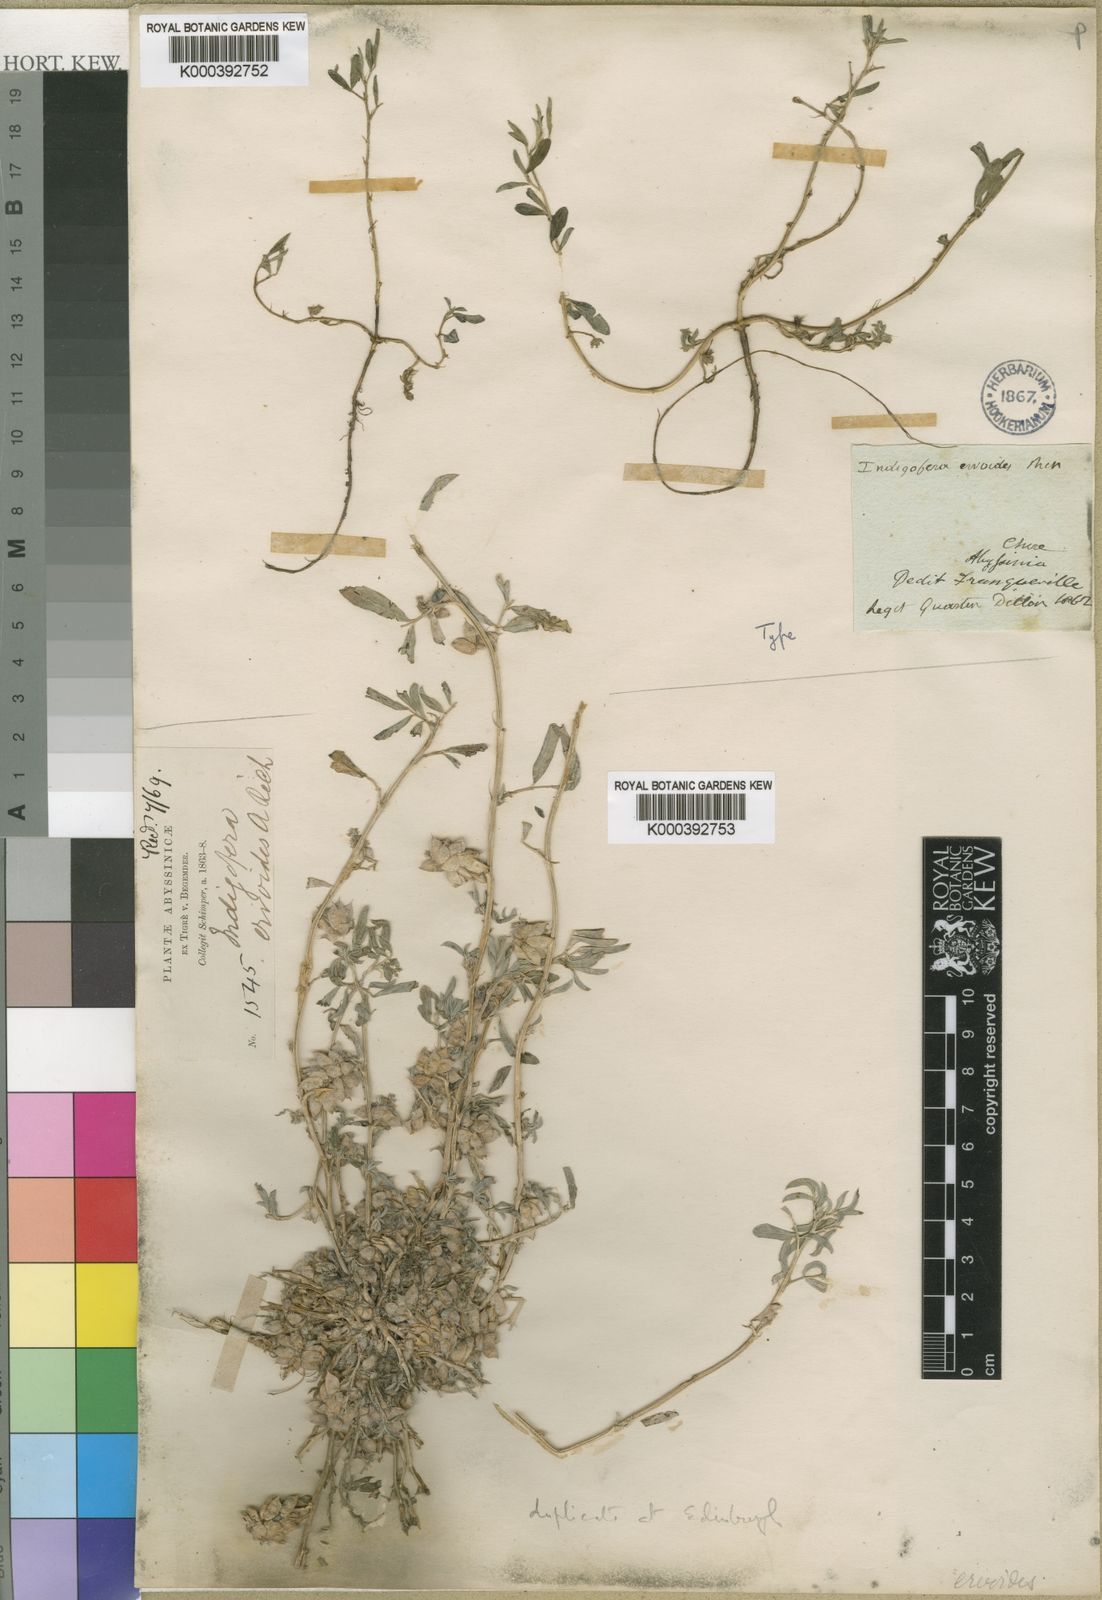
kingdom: Plantae
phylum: Tracheophyta
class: Magnoliopsida
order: Fabales
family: Fabaceae
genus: Indigofera
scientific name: Indigofera
